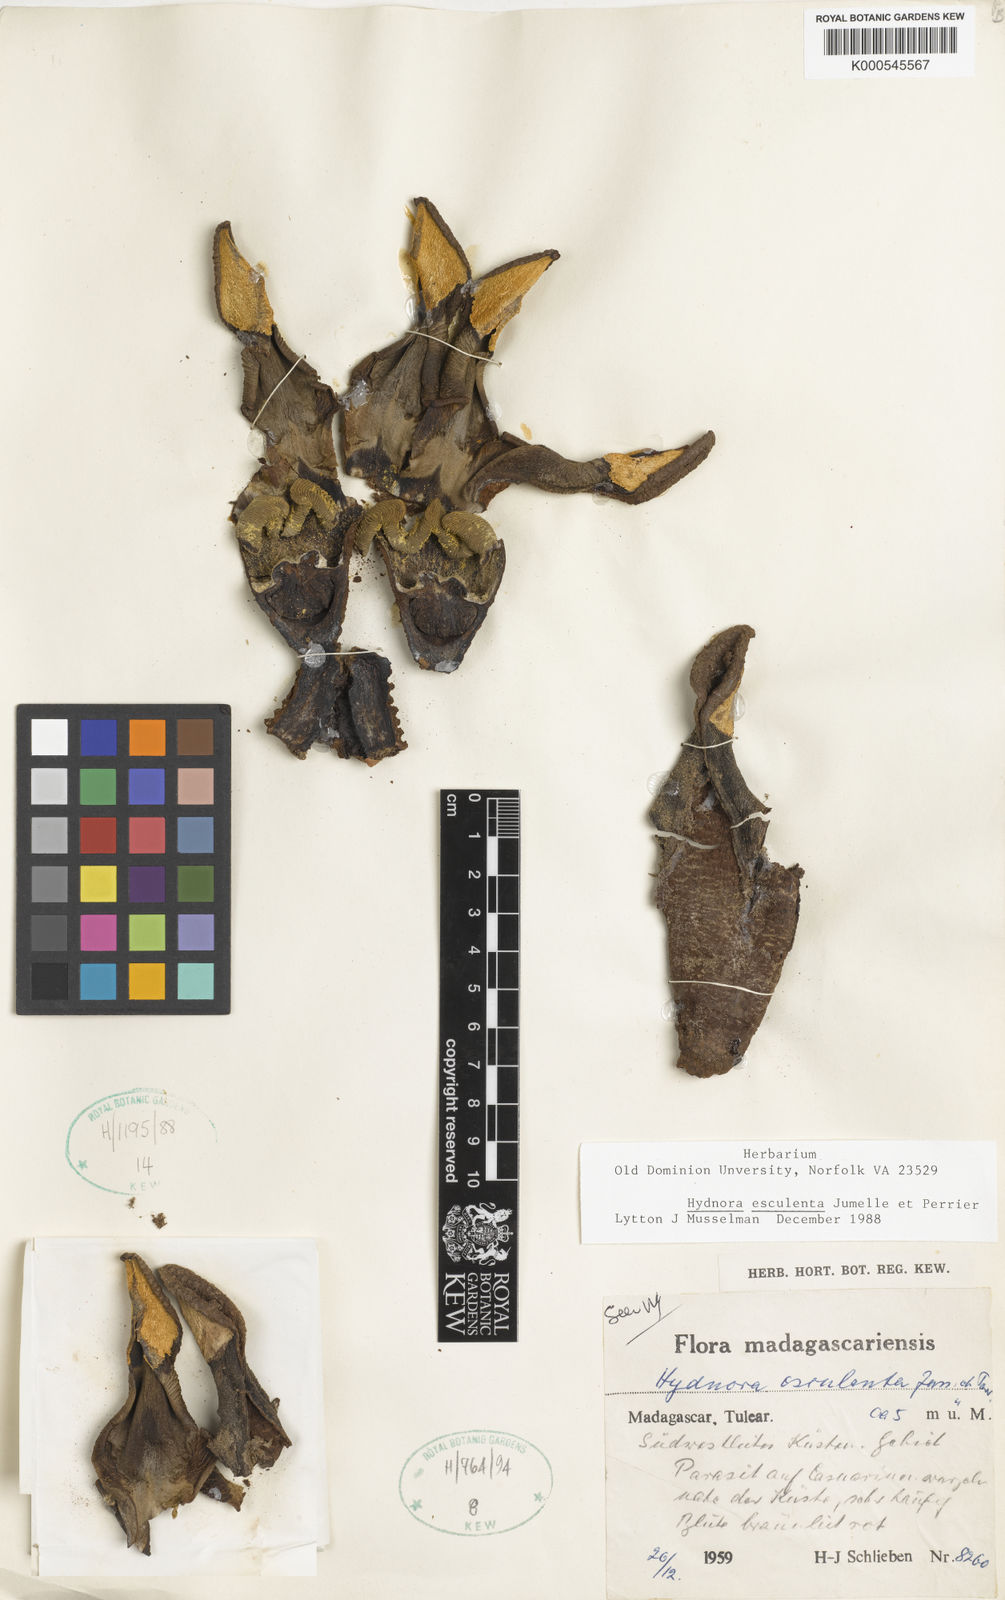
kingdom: Plantae
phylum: Tracheophyta
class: Magnoliopsida
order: Piperales
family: Hydnoraceae
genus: Hydnora
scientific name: Hydnora esculenta
